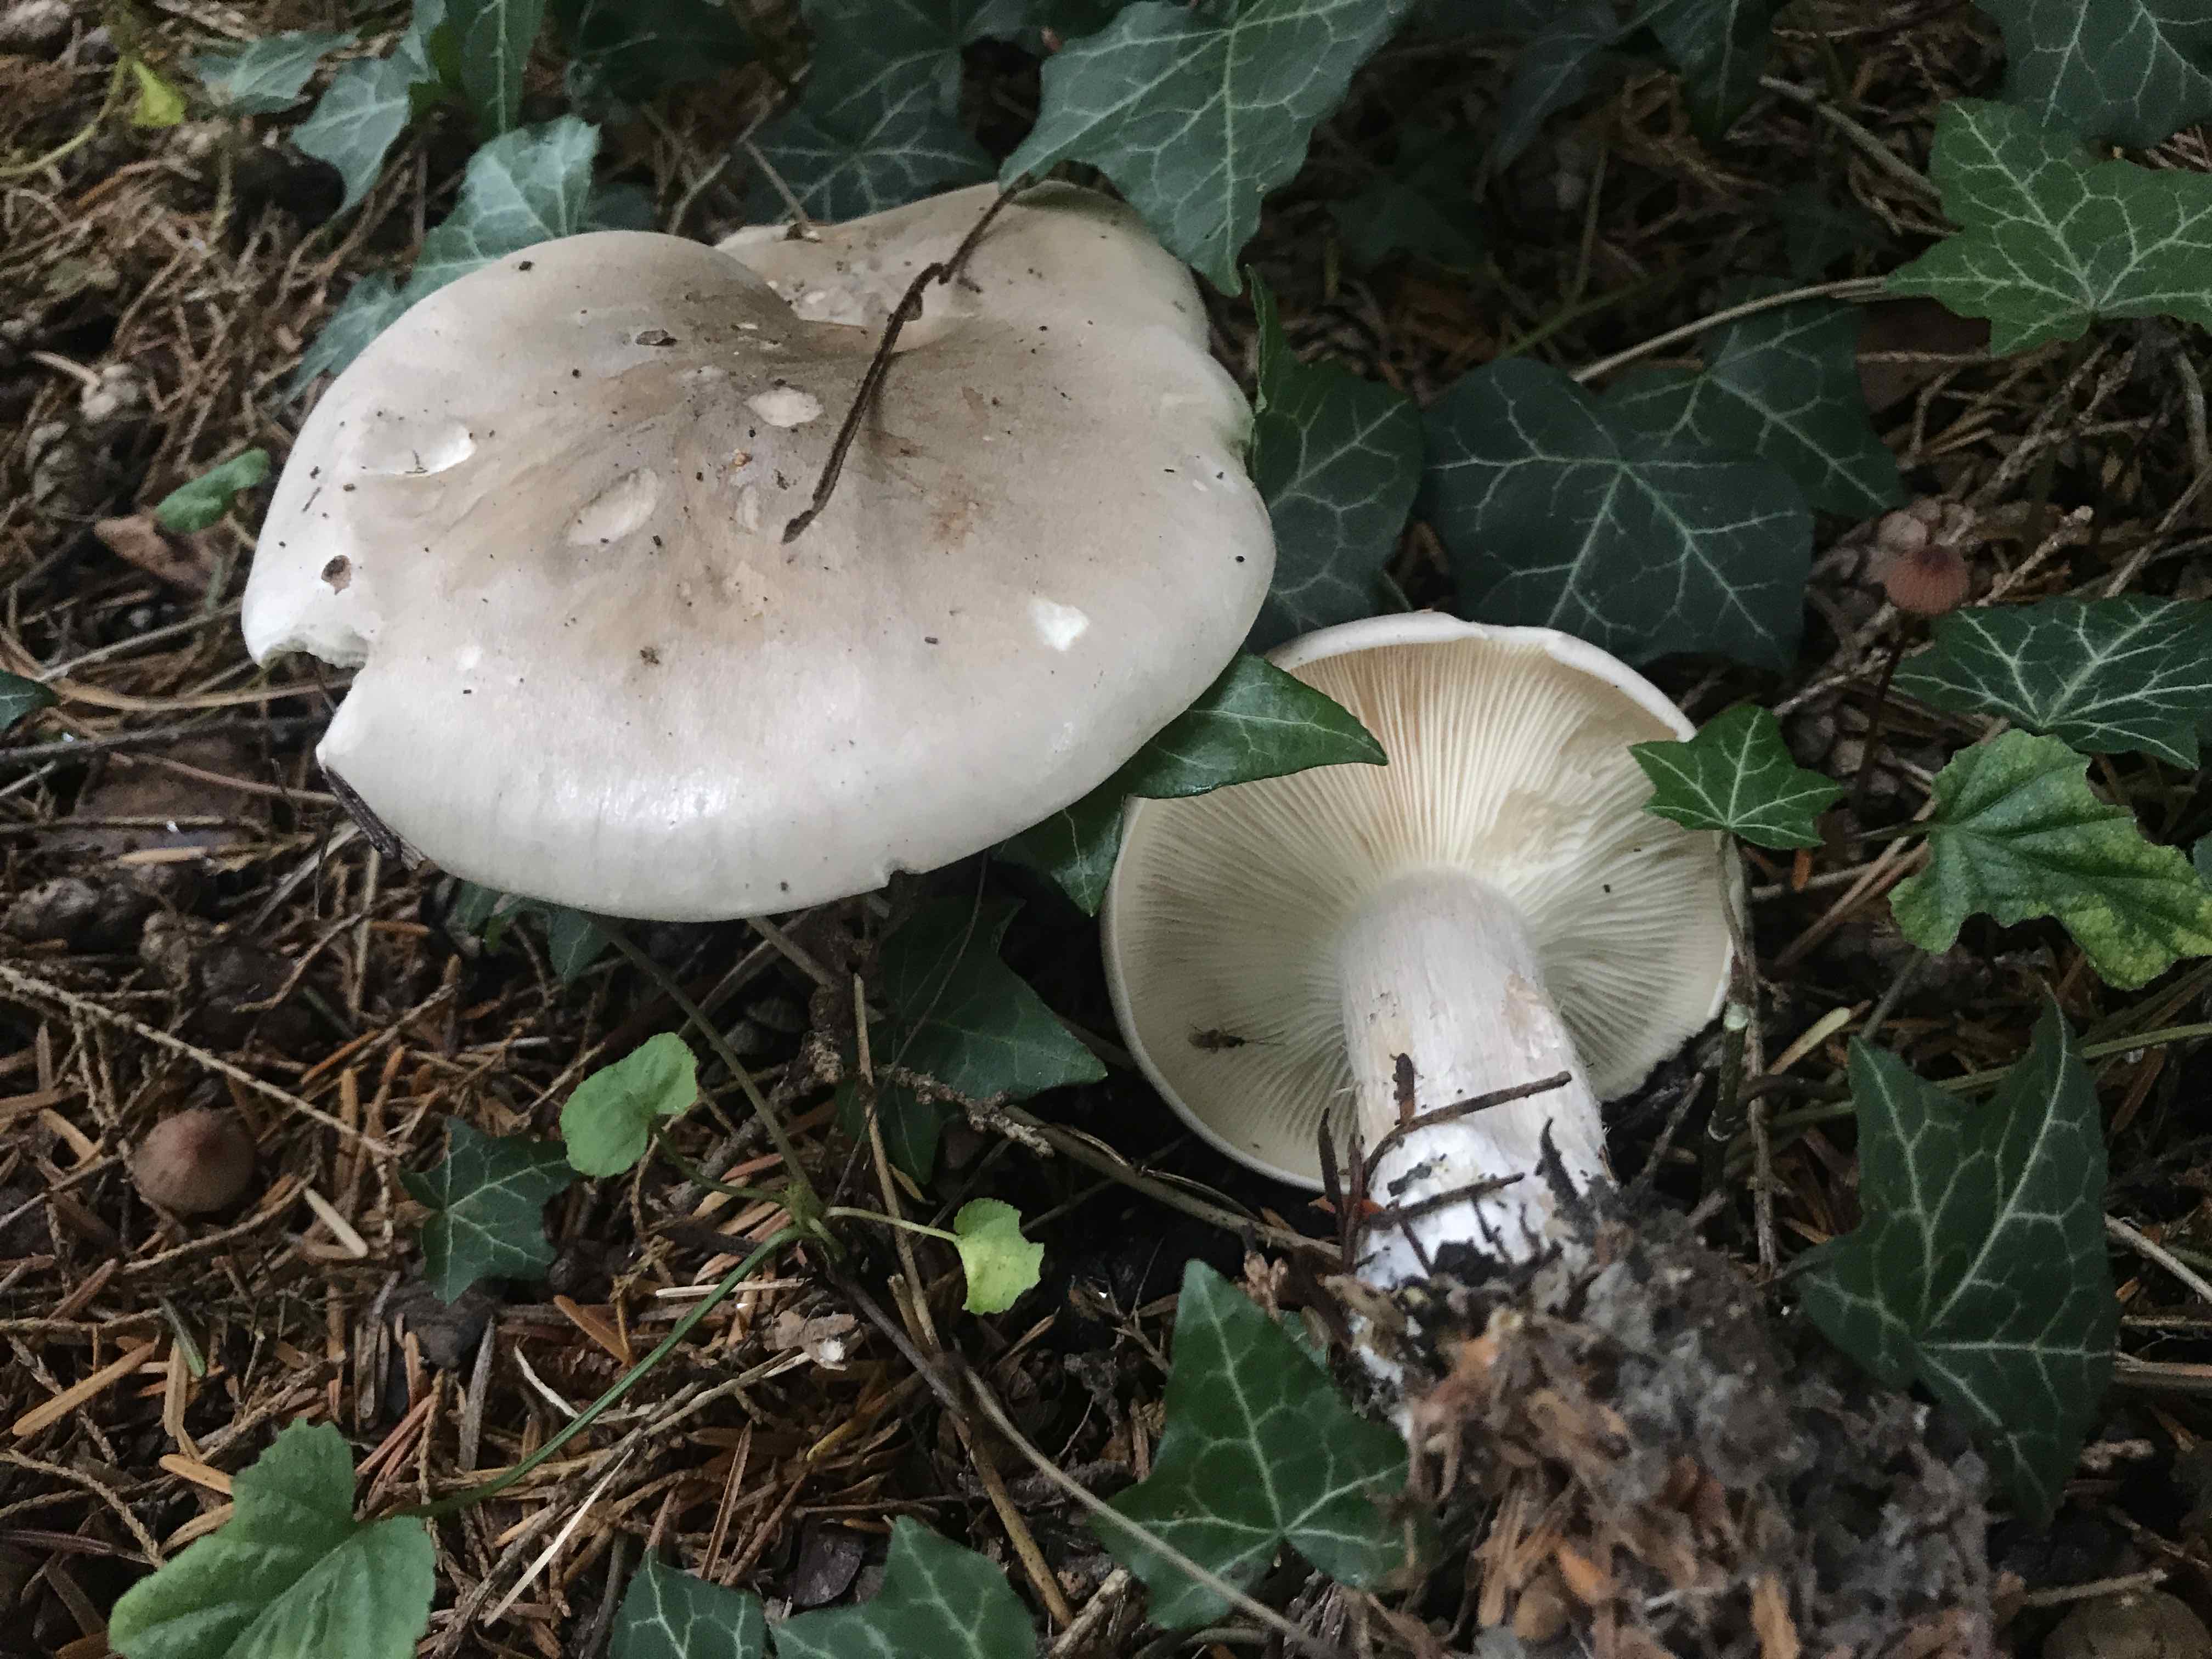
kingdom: Fungi
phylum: Basidiomycota
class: Agaricomycetes
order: Agaricales
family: Tricholomataceae
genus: Clitocybe
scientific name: Clitocybe nebularis
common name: tåge-tragthat
